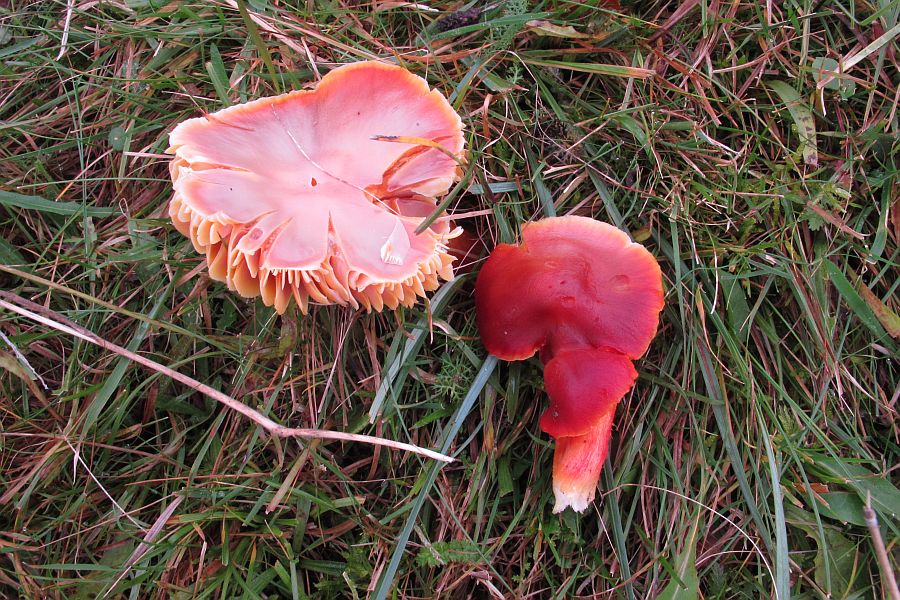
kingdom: Fungi
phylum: Basidiomycota
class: Agaricomycetes
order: Agaricales
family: Hygrophoraceae
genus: Hygrocybe
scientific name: Hygrocybe punicea
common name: skarlagen-vokshat
